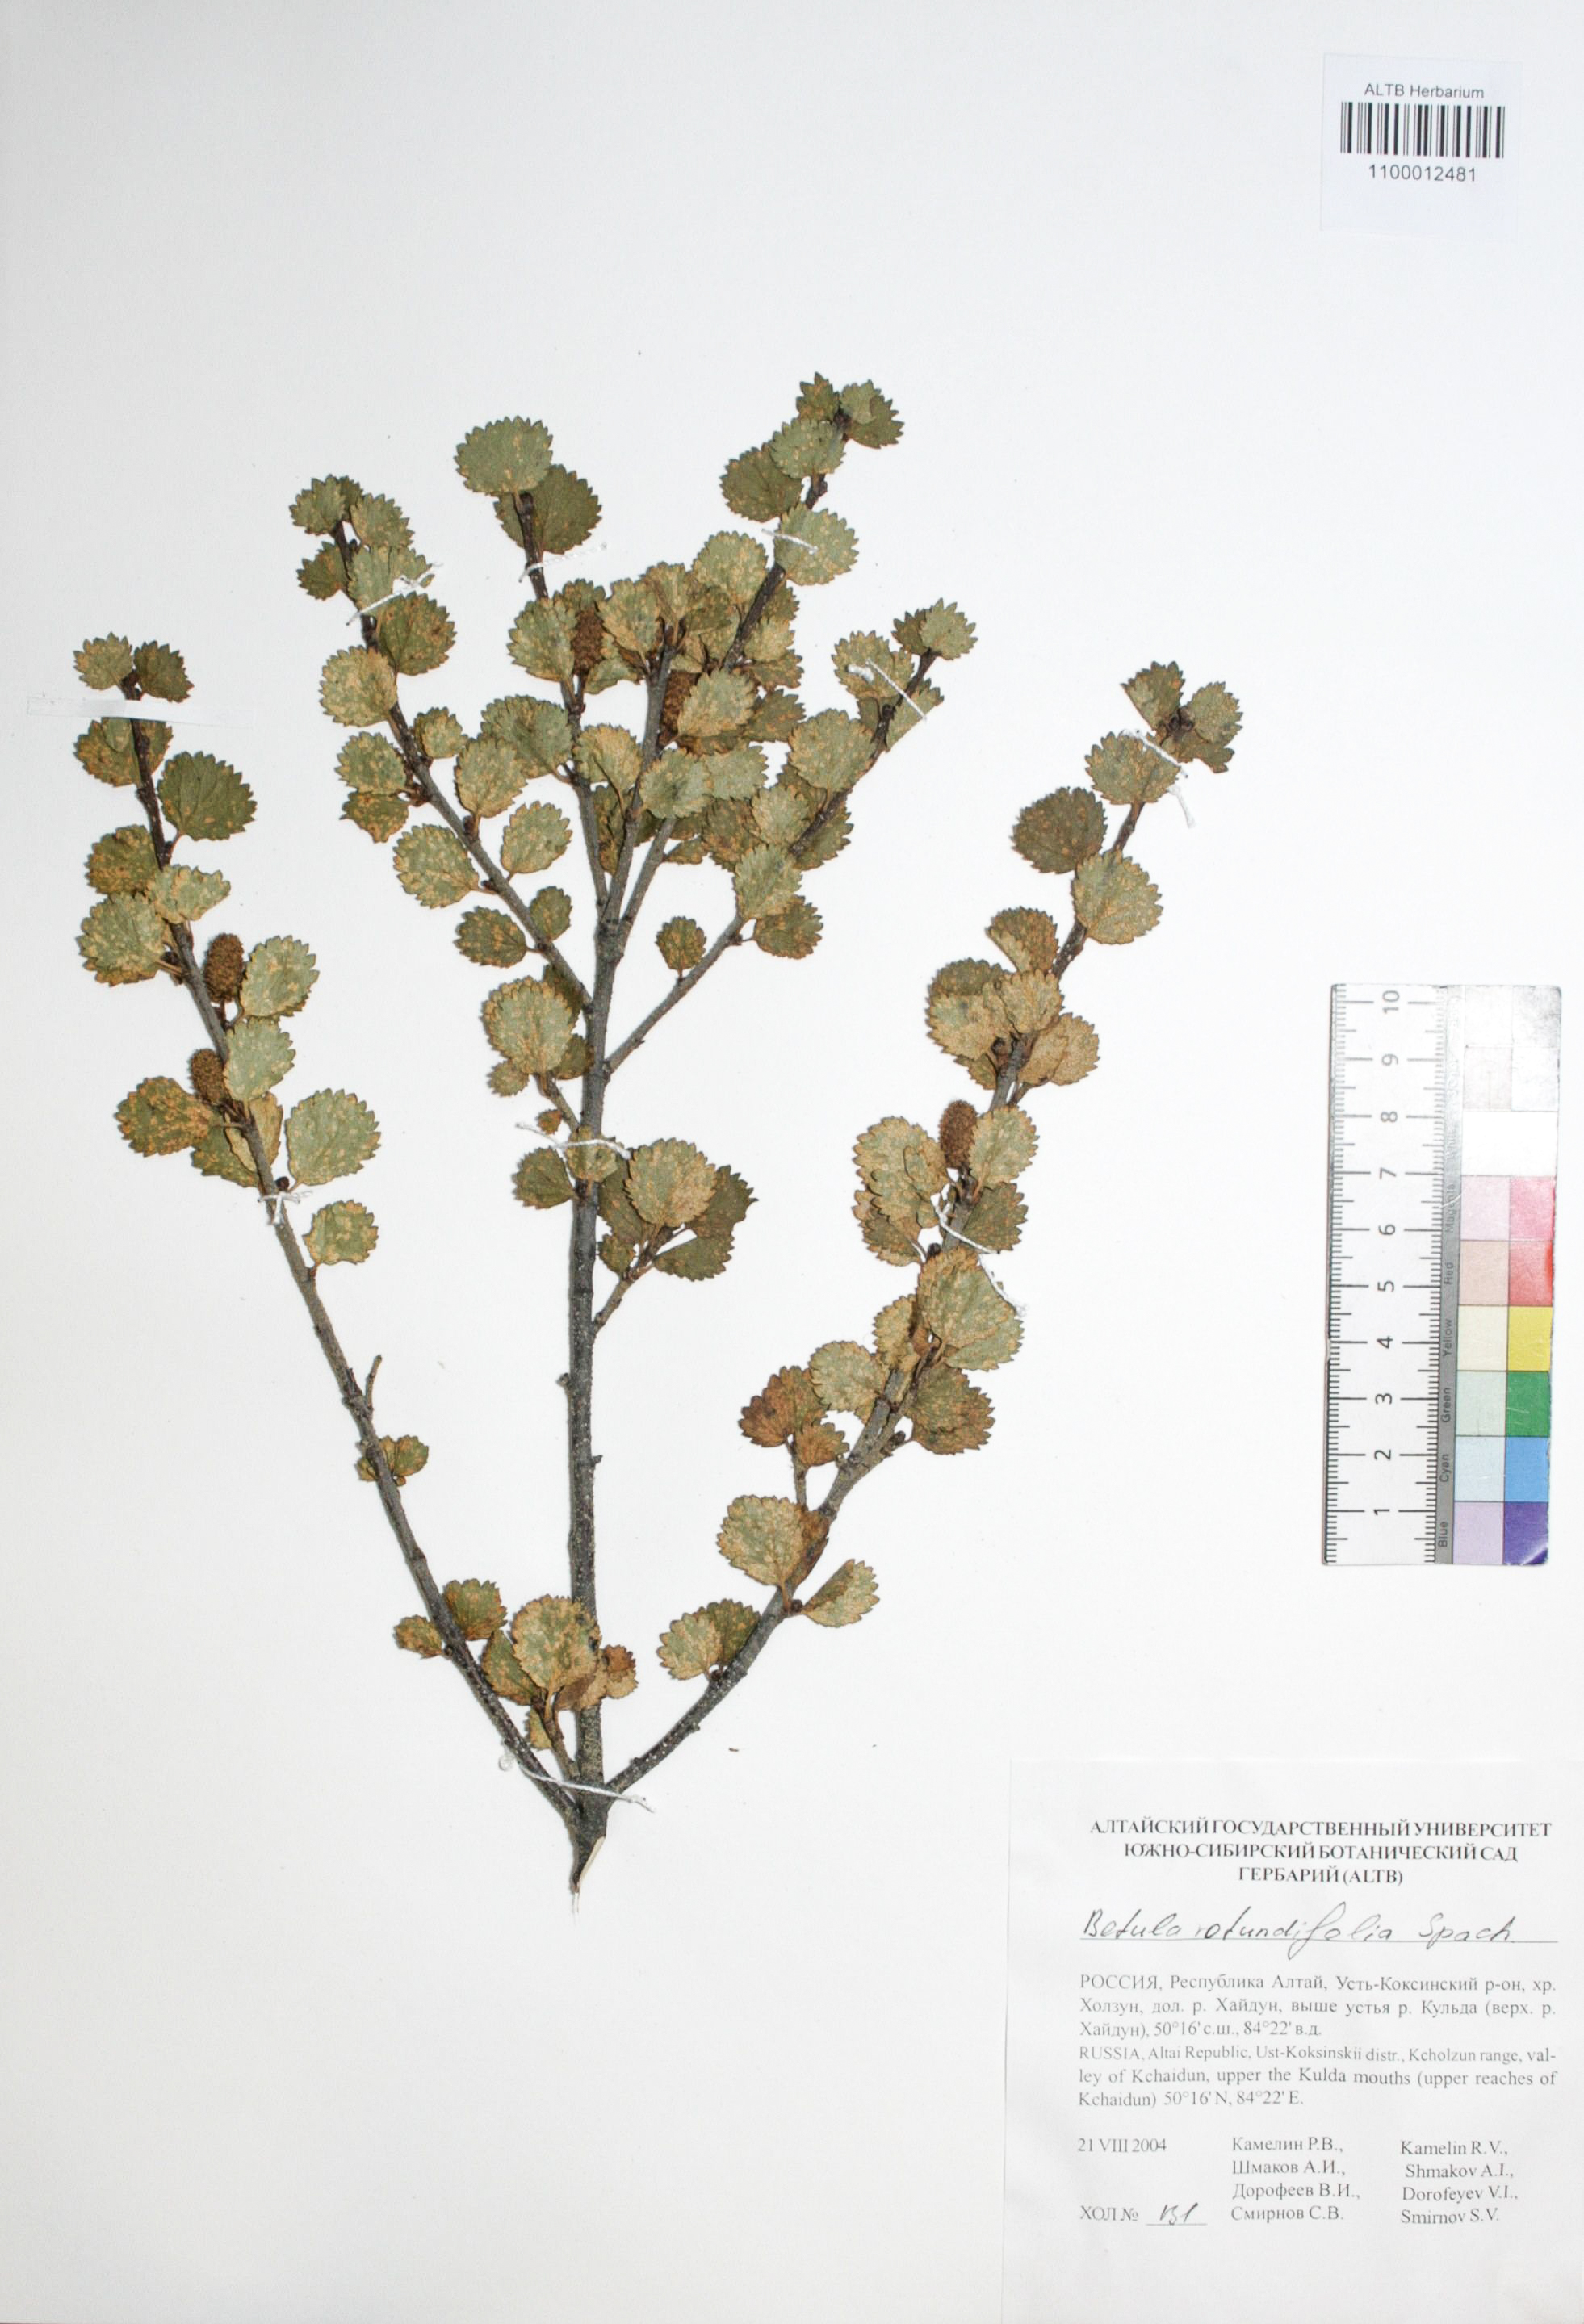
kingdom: Plantae
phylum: Tracheophyta
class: Magnoliopsida
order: Fagales
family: Betulaceae
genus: Betula
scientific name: Betula glandulosa
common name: Dwarf birch
